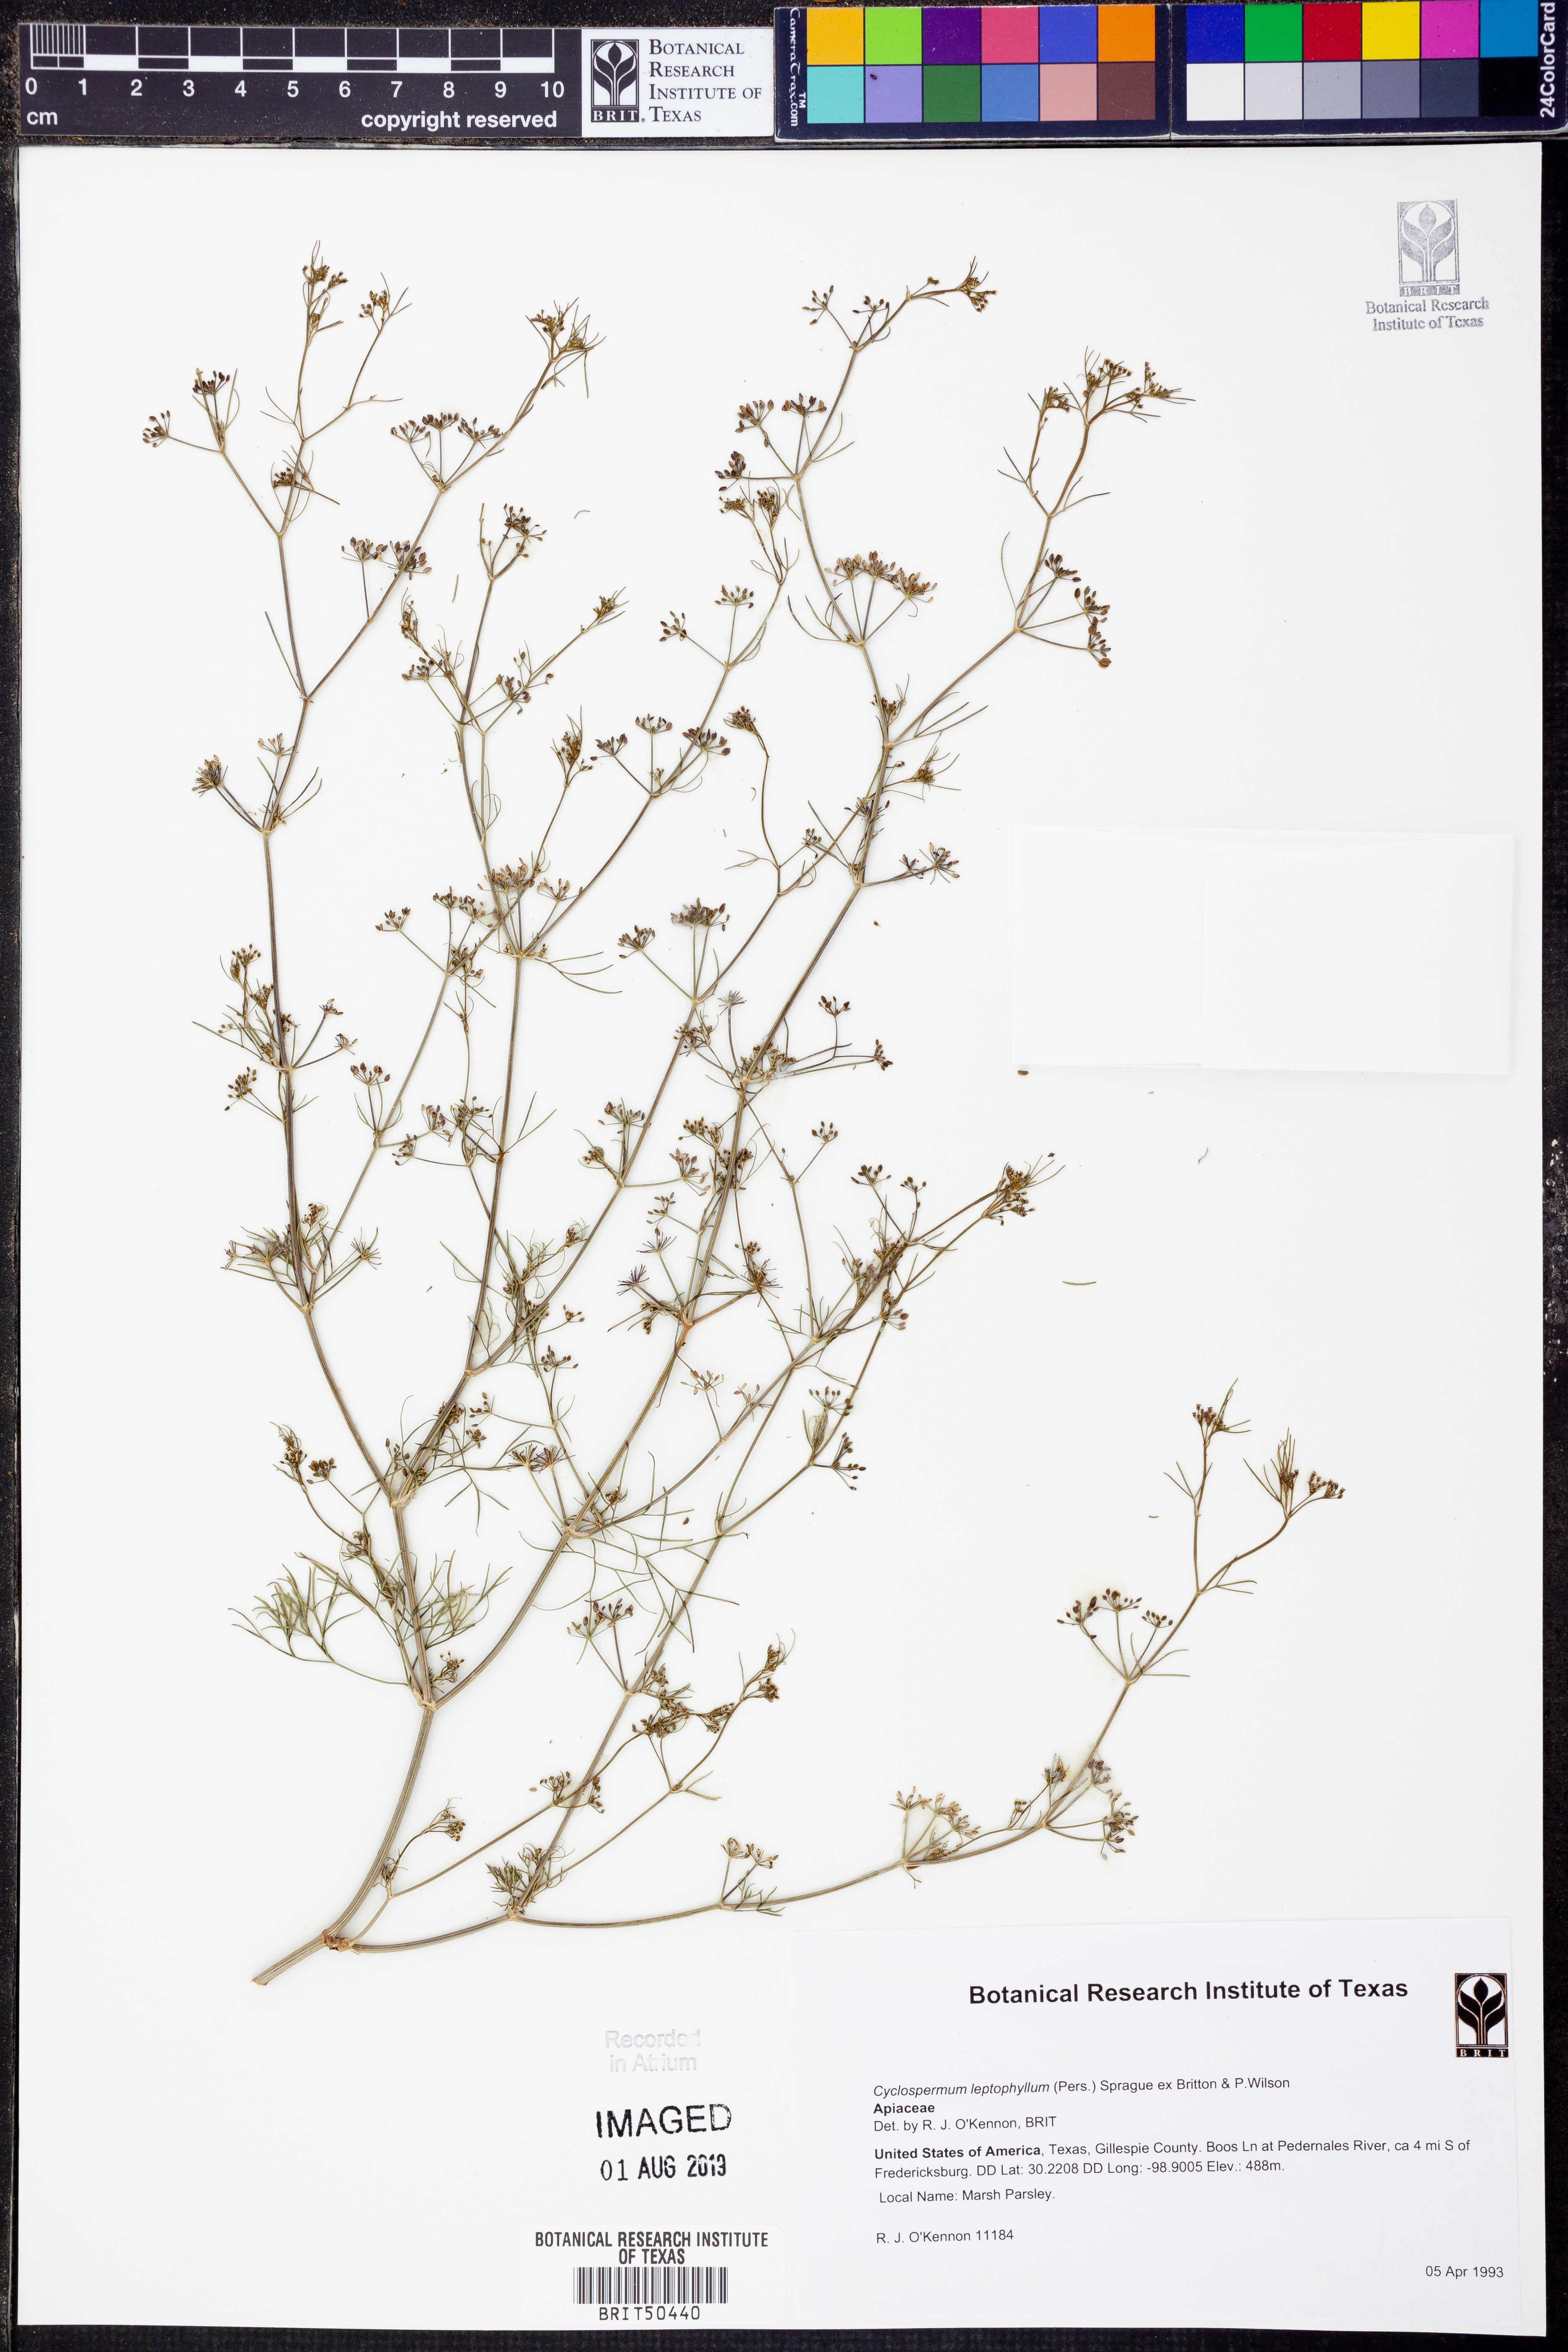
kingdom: Plantae
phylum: Tracheophyta
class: Magnoliopsida
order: Apiales
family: Apiaceae
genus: Cyclospermum
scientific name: Cyclospermum leptophyllum
